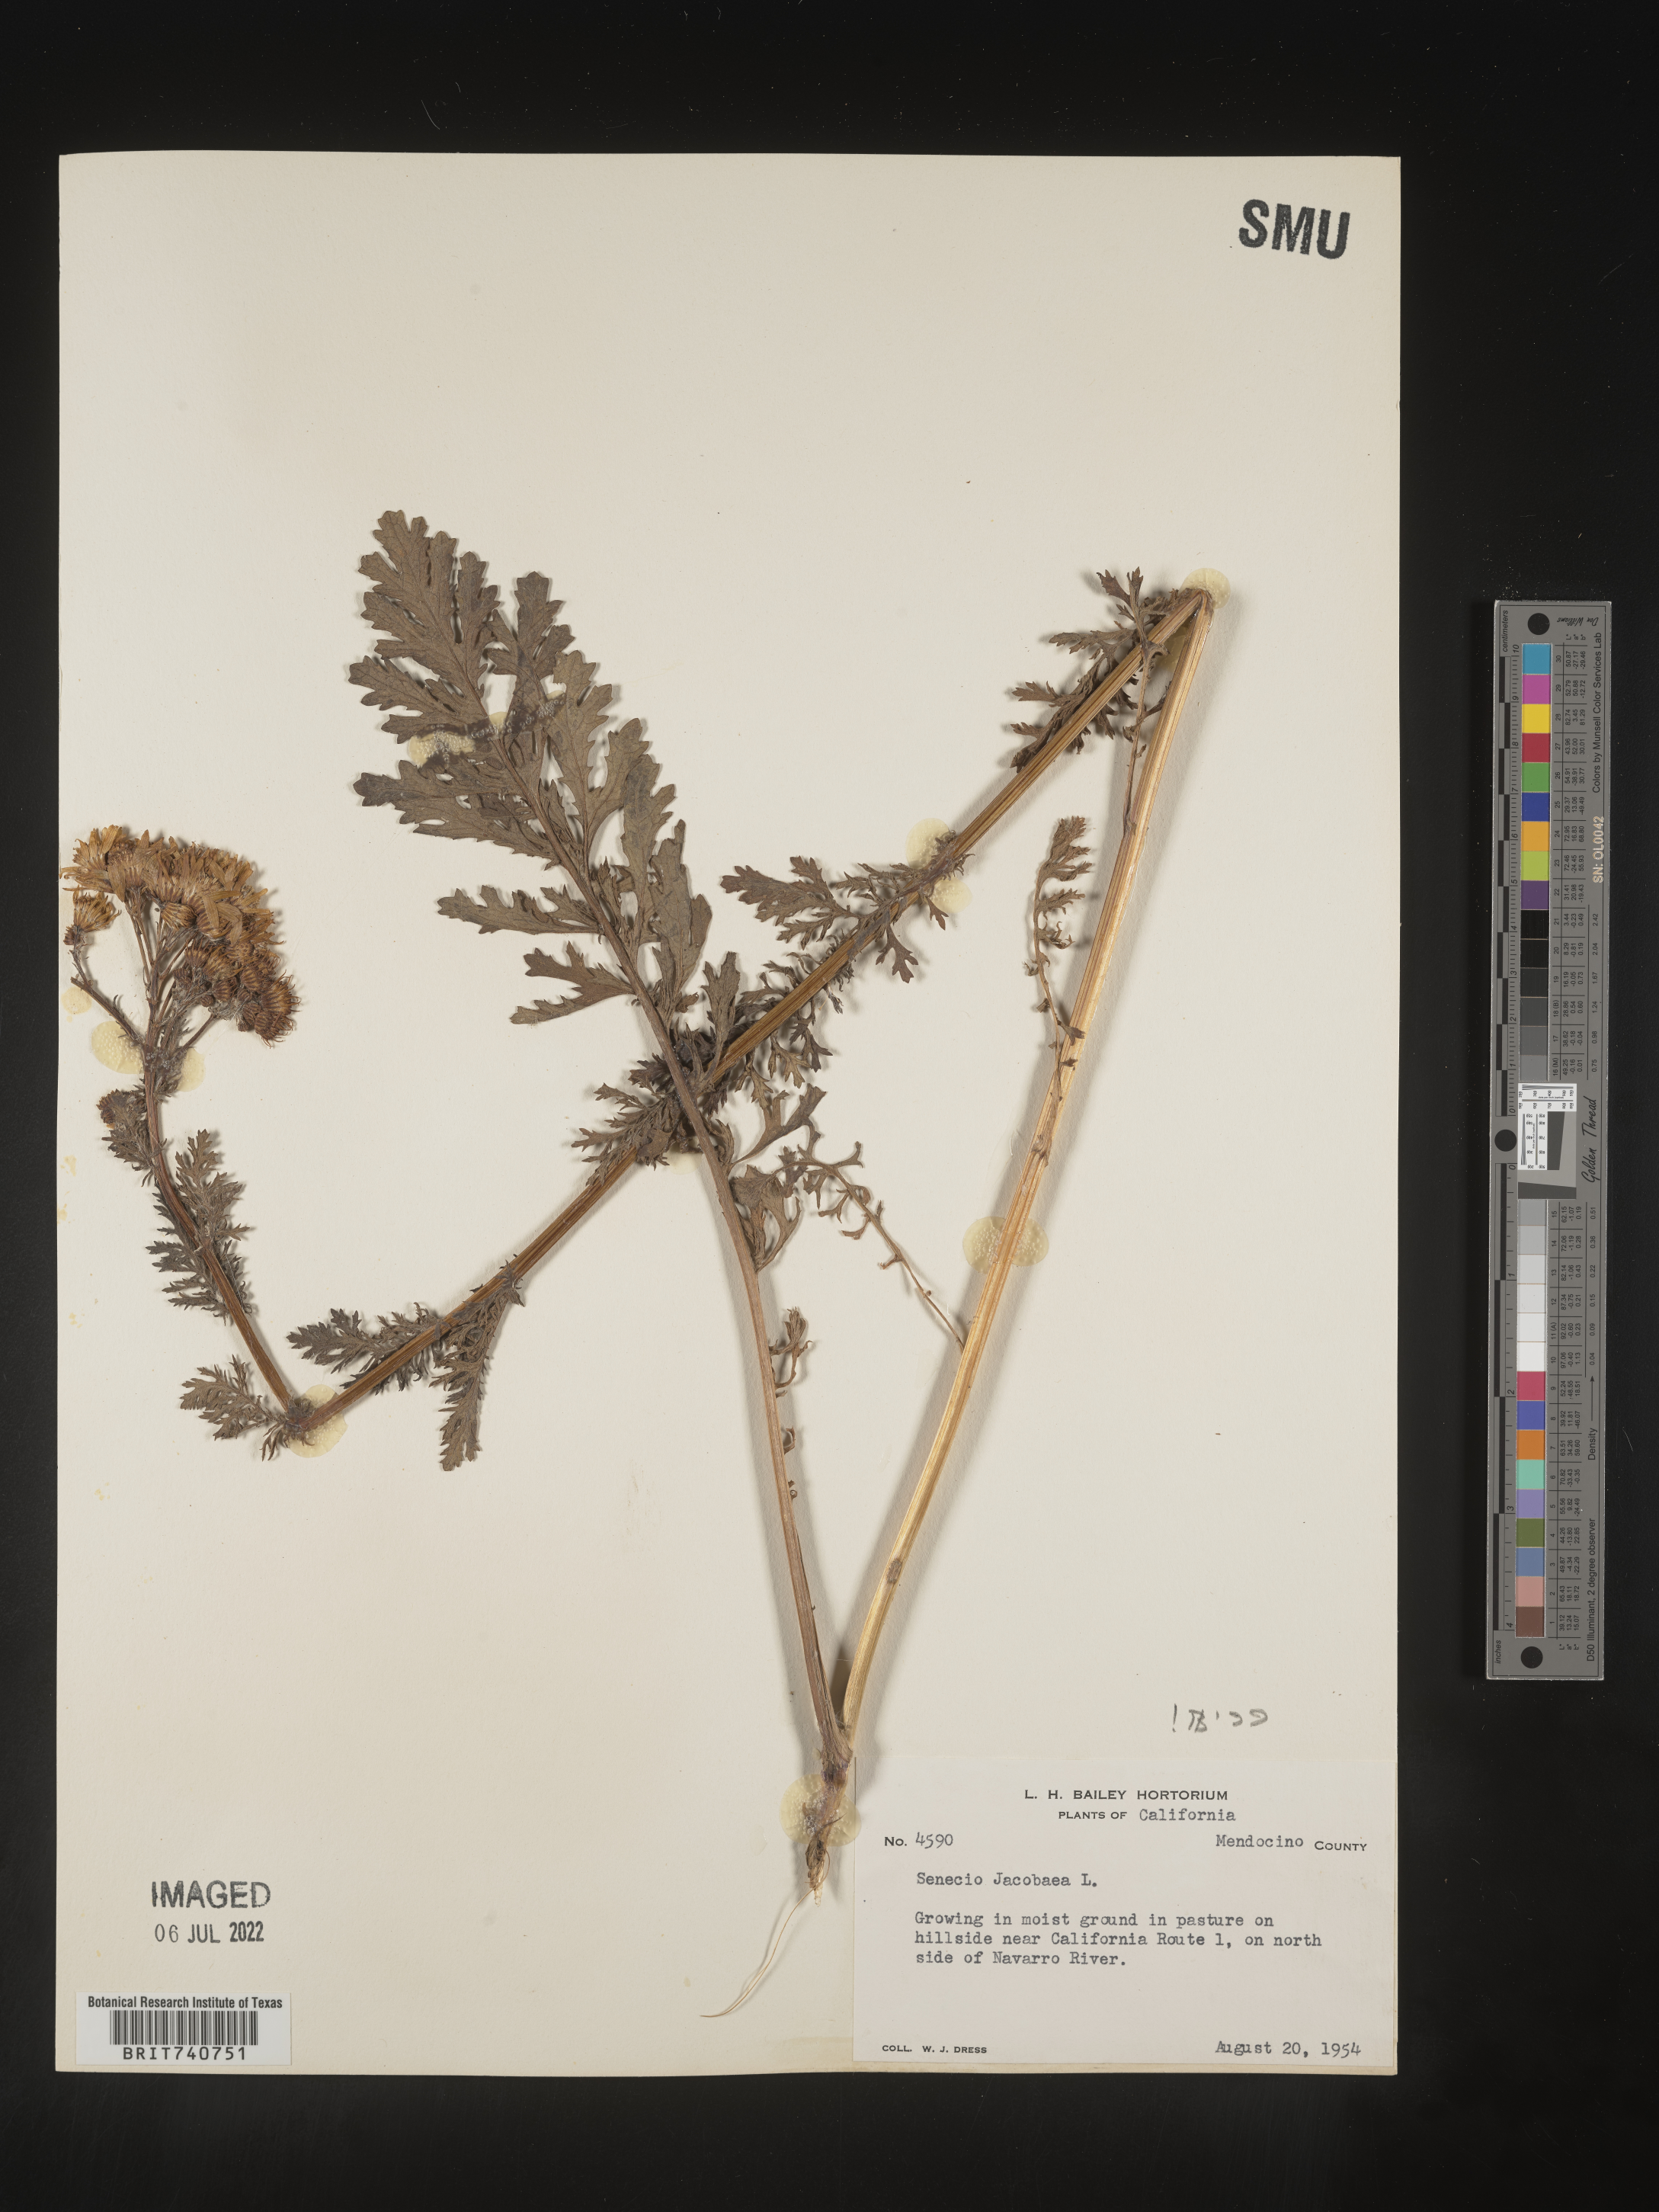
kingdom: Plantae
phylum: Tracheophyta
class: Magnoliopsida
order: Asterales
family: Asteraceae
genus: Jacobaea
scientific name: Jacobaea vulgaris
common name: Stinking willie
